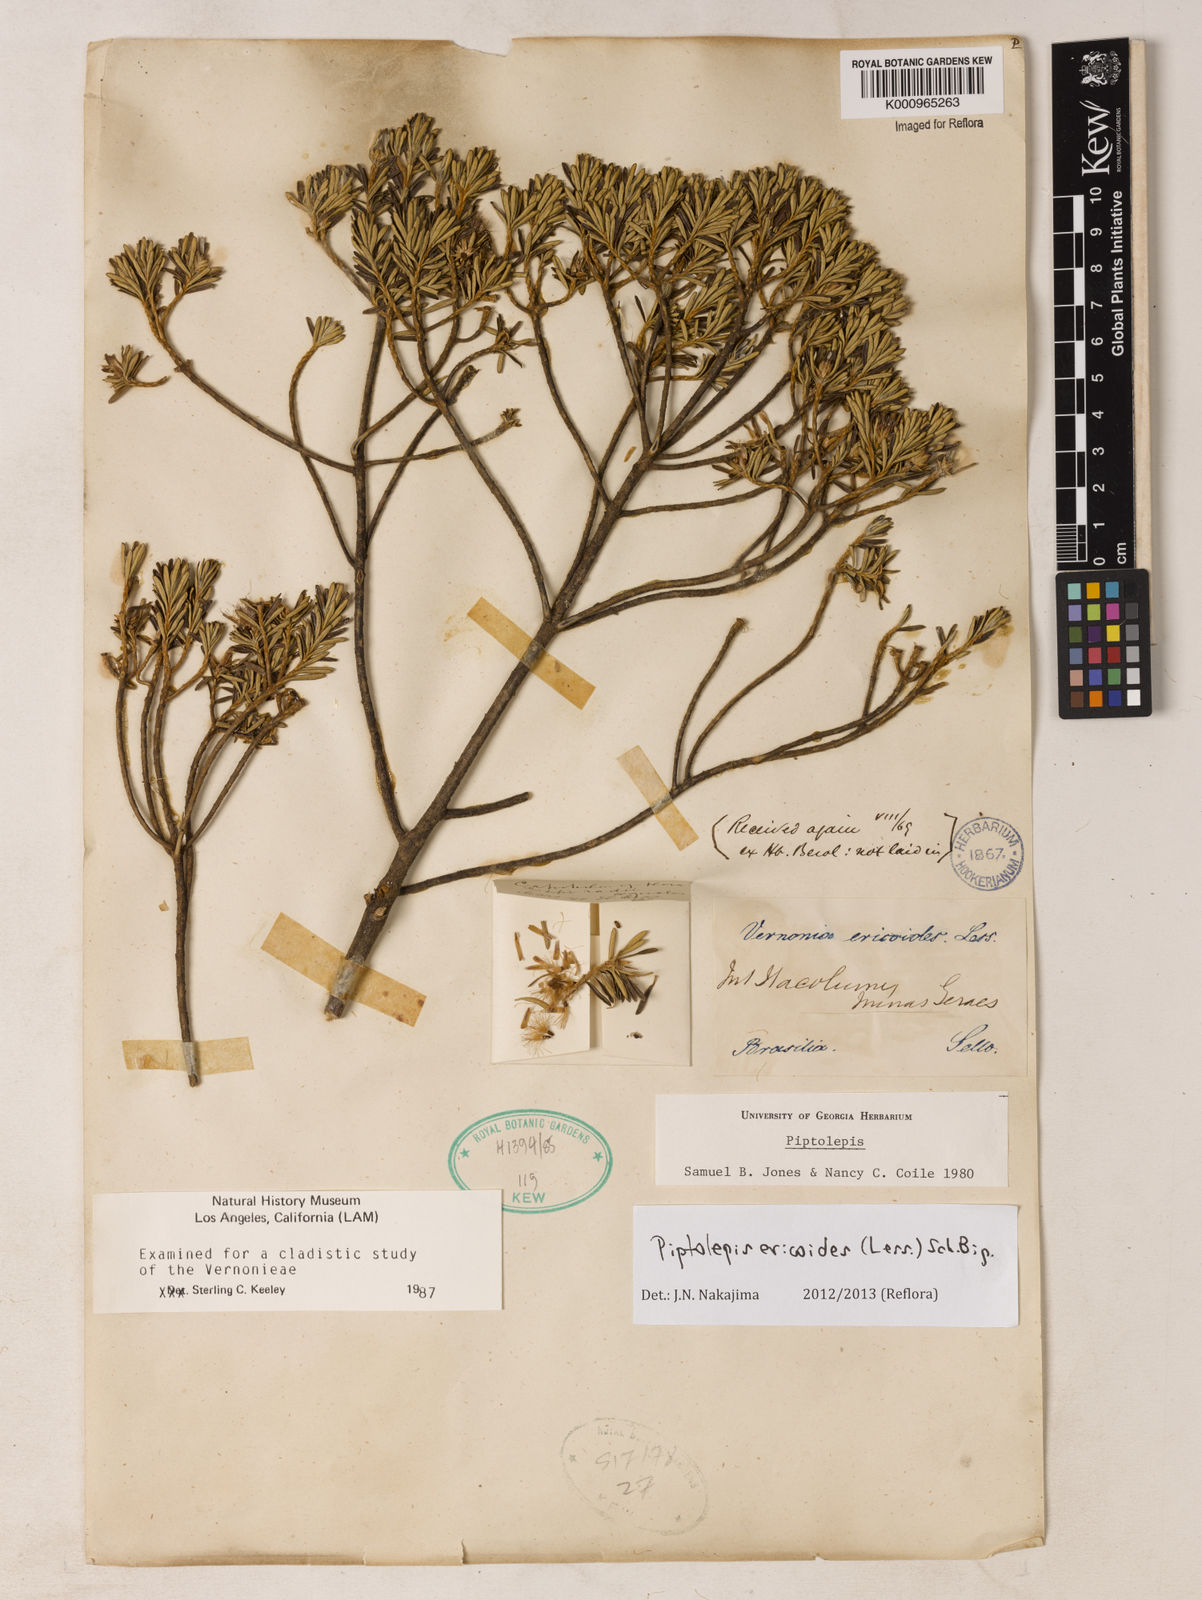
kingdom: Plantae
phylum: Tracheophyta
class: Magnoliopsida
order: Asterales
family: Asteraceae
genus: Piptolepis
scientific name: Piptolepis ericoides
